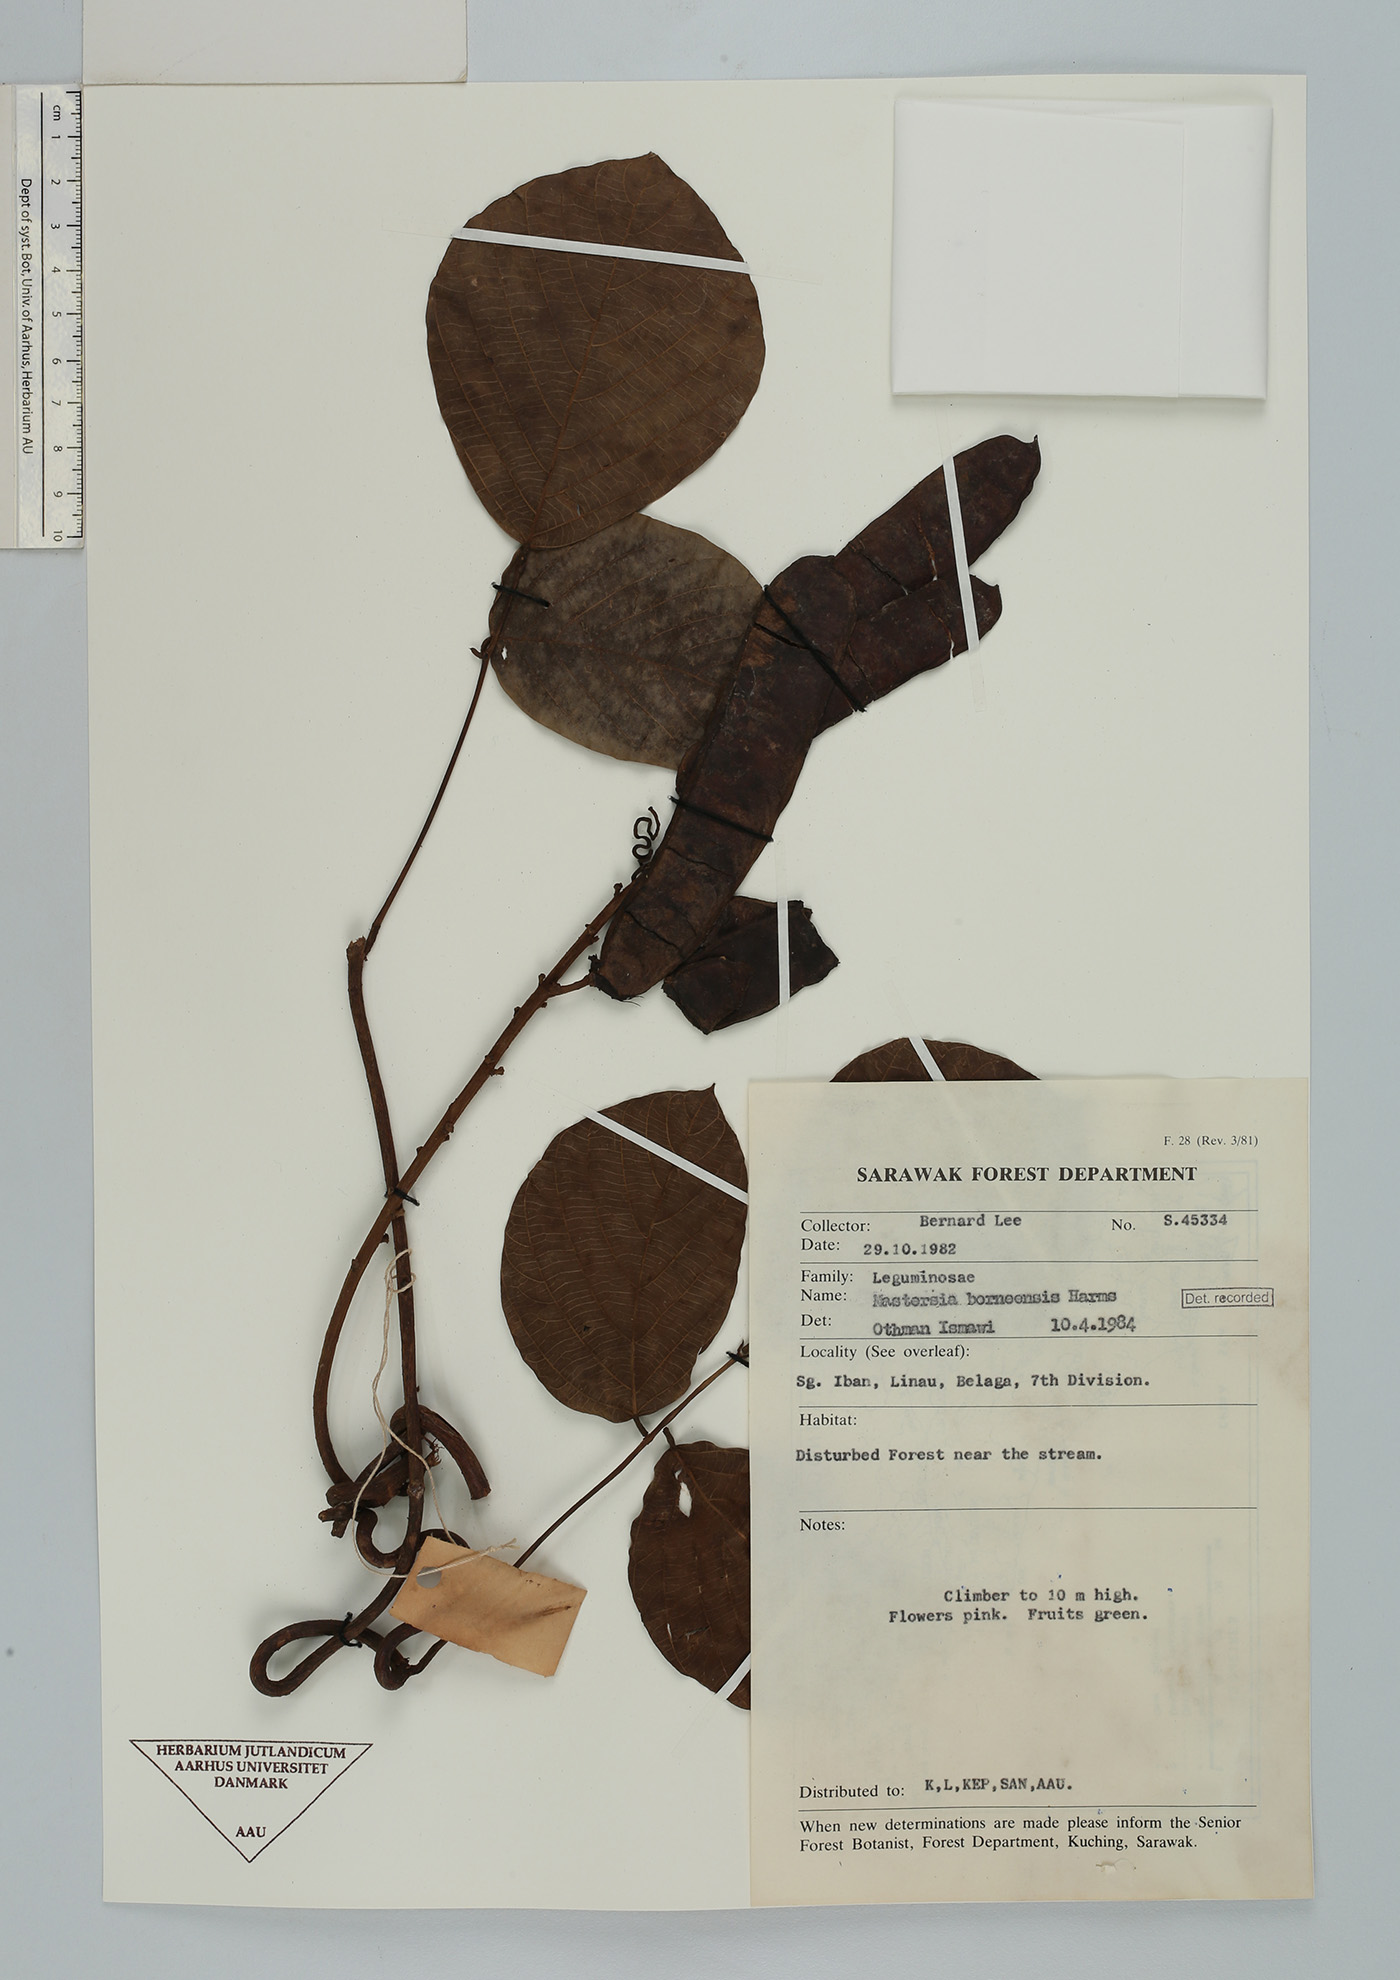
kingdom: Plantae
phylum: Tracheophyta
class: Magnoliopsida
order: Fabales
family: Fabaceae
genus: Mastersia
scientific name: Mastersia bakeri
